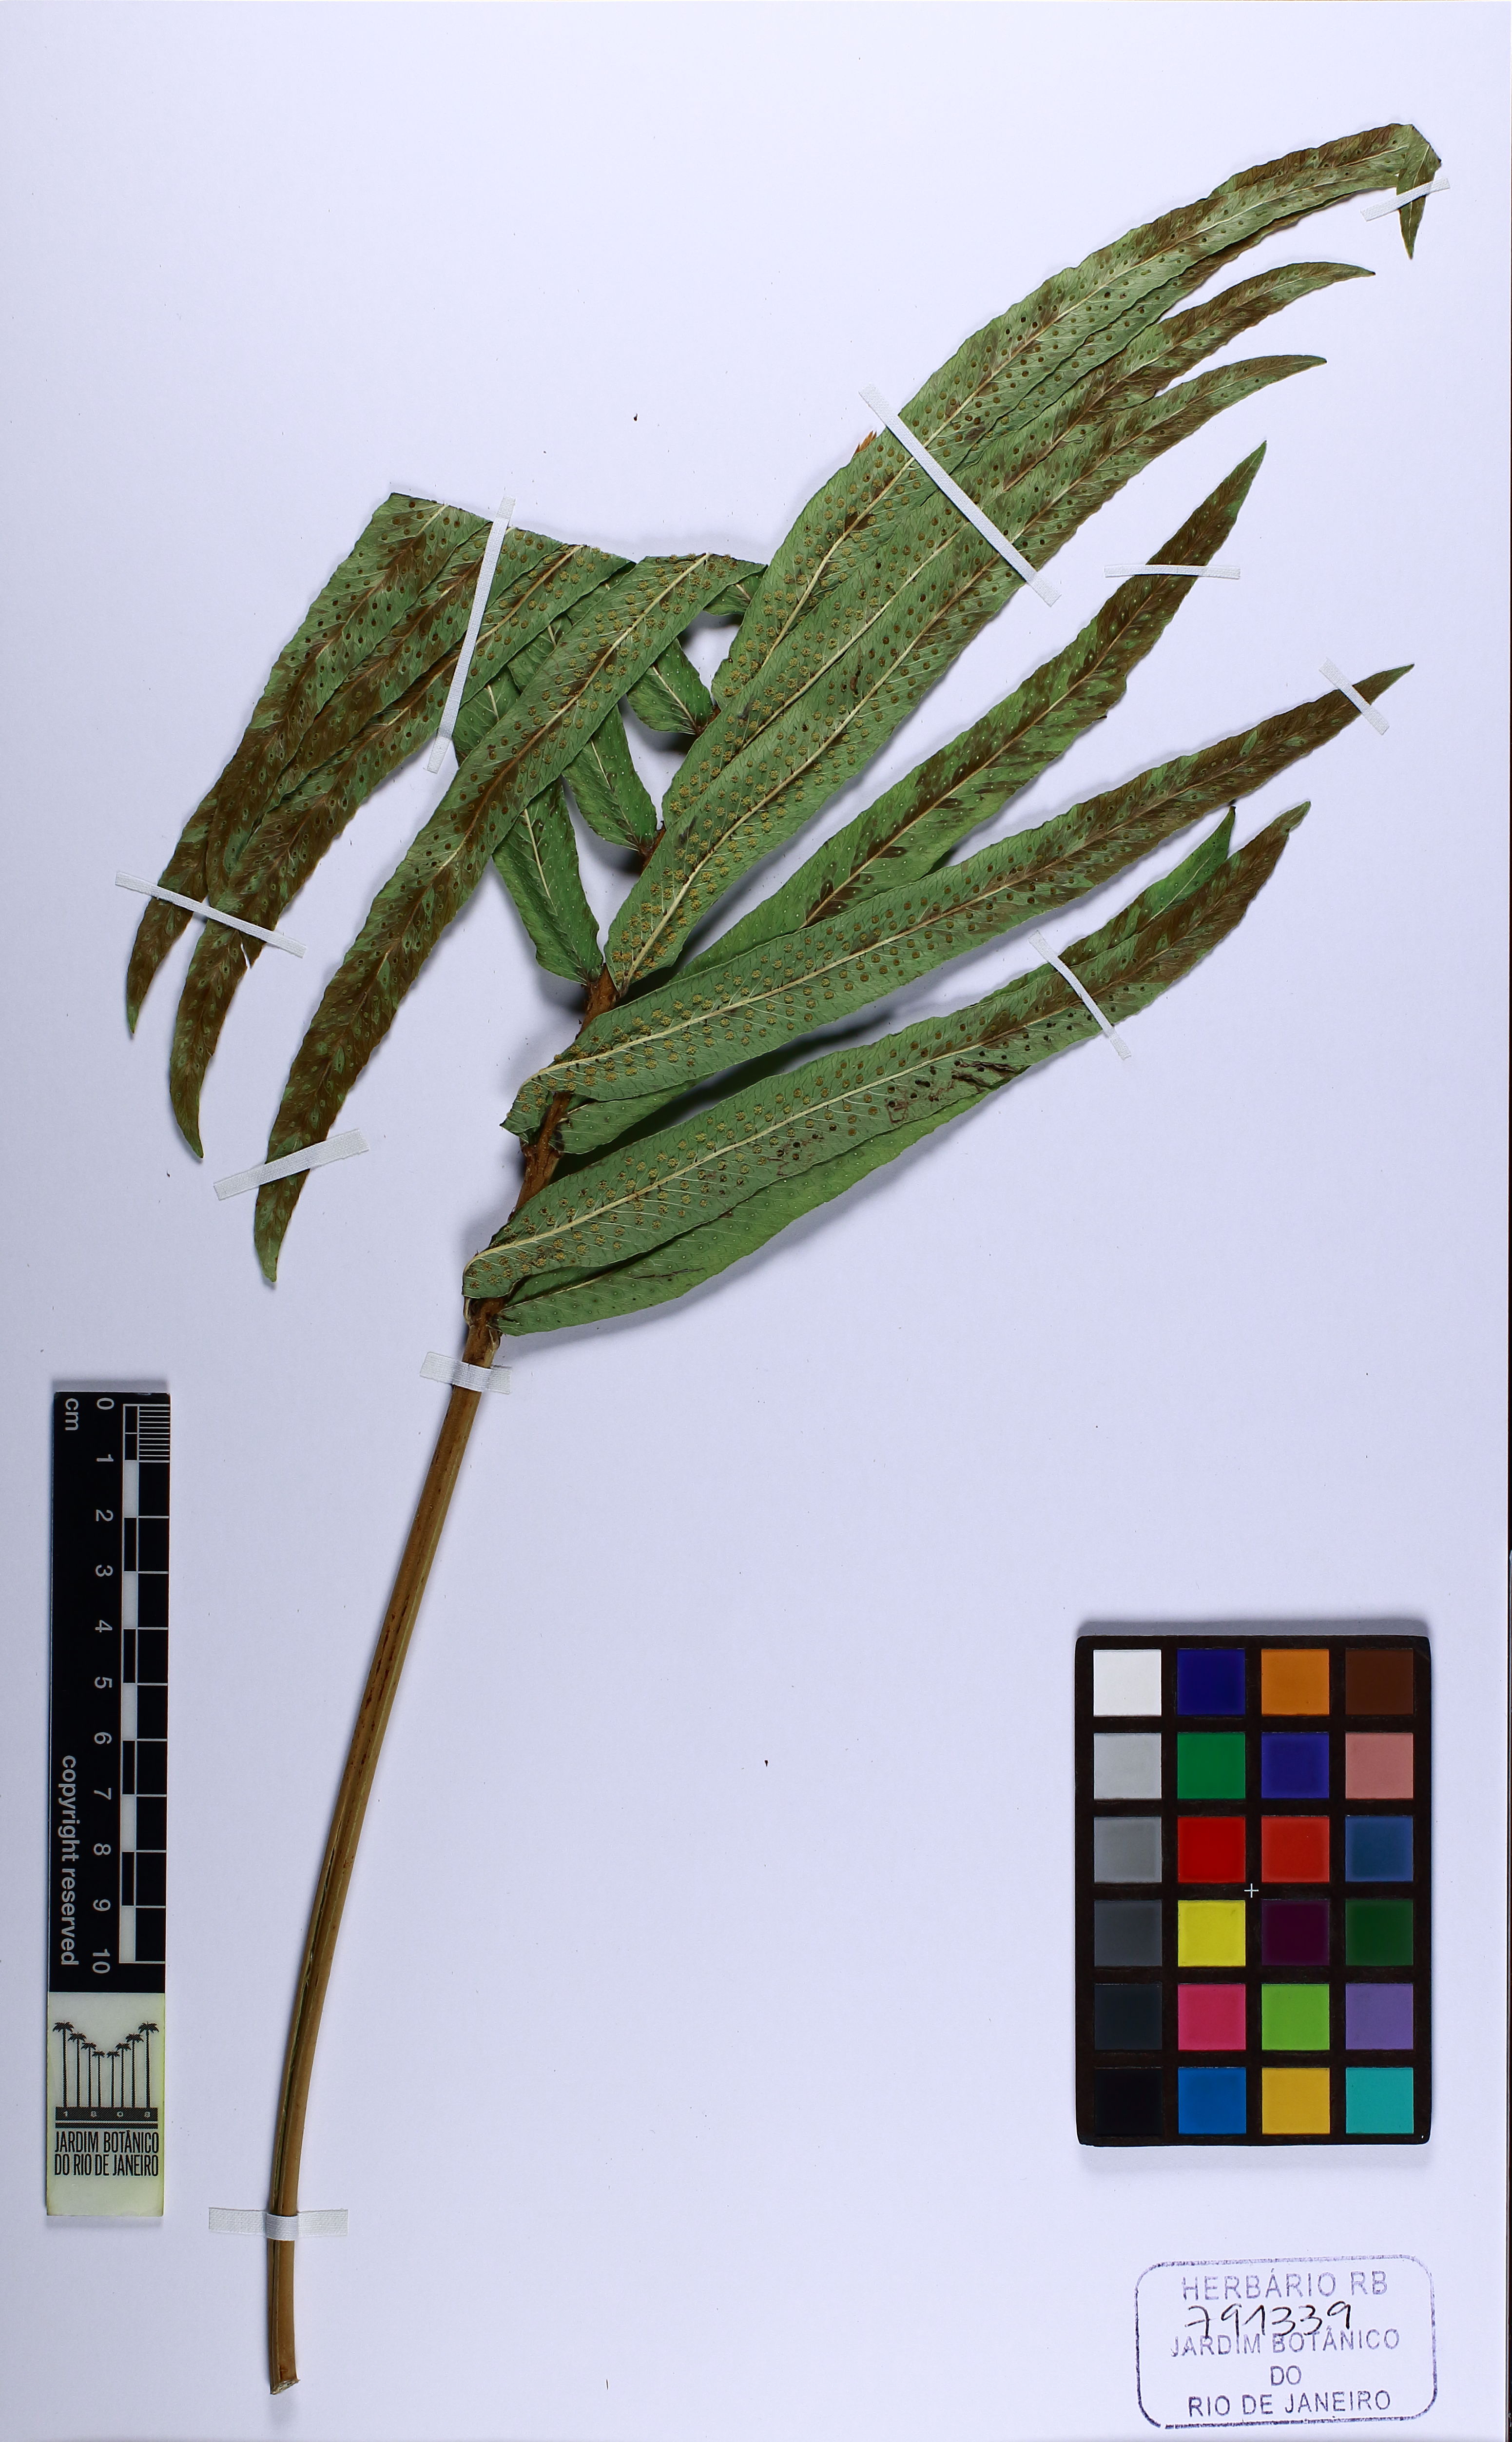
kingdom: Plantae
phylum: Tracheophyta
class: Polypodiopsida
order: Polypodiales
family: Polypodiaceae
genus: Serpocaulon
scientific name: Serpocaulon triseriale
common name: Angle-vein fern
